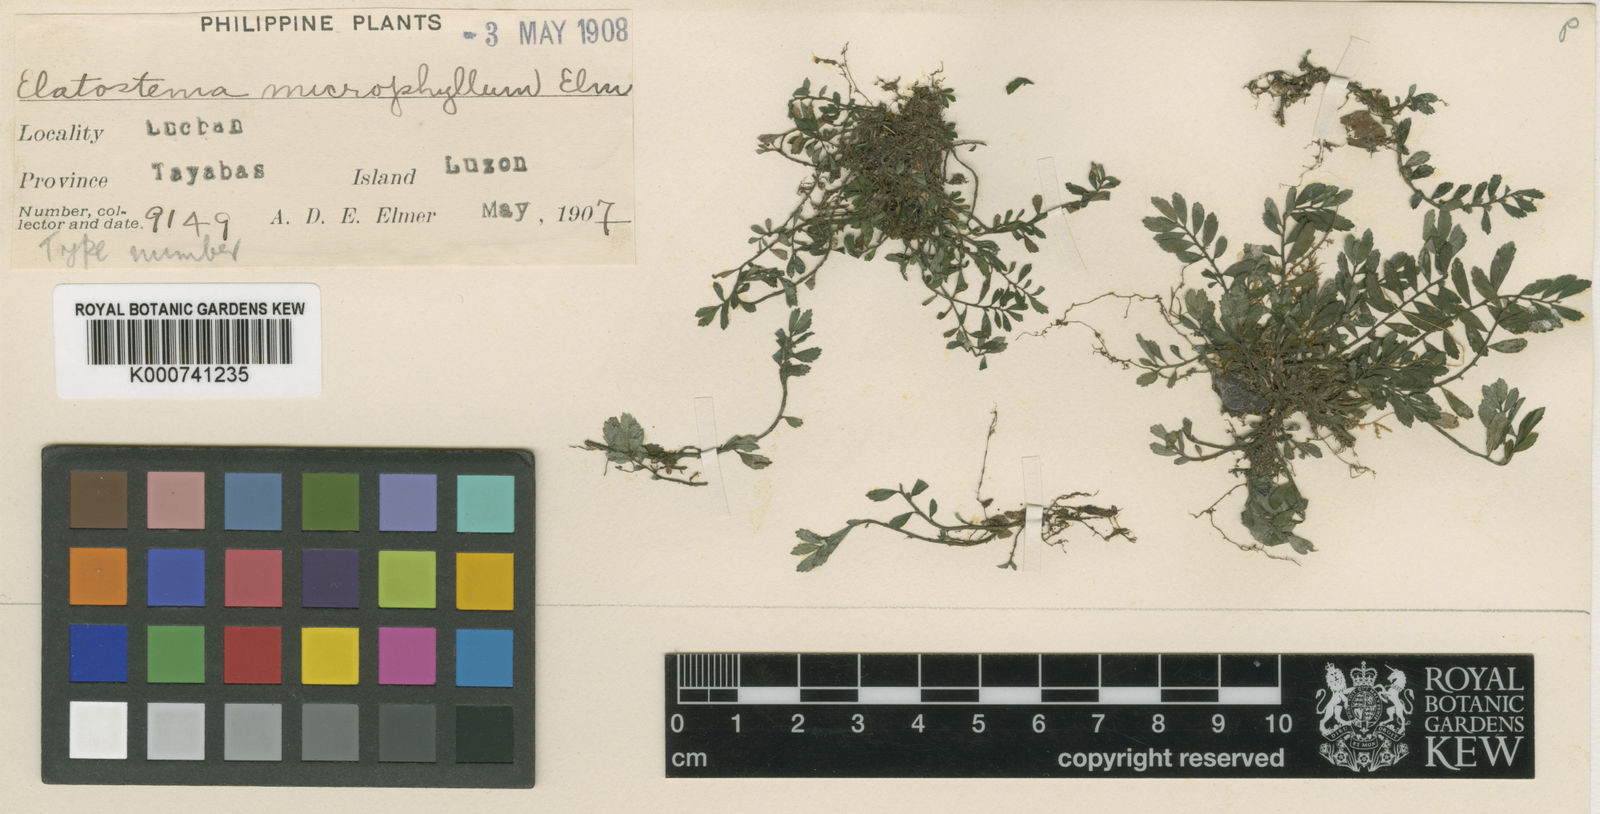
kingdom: Plantae
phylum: Tracheophyta
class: Magnoliopsida
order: Rosales
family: Urticaceae
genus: Elatostema
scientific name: Elatostema microphyllum
